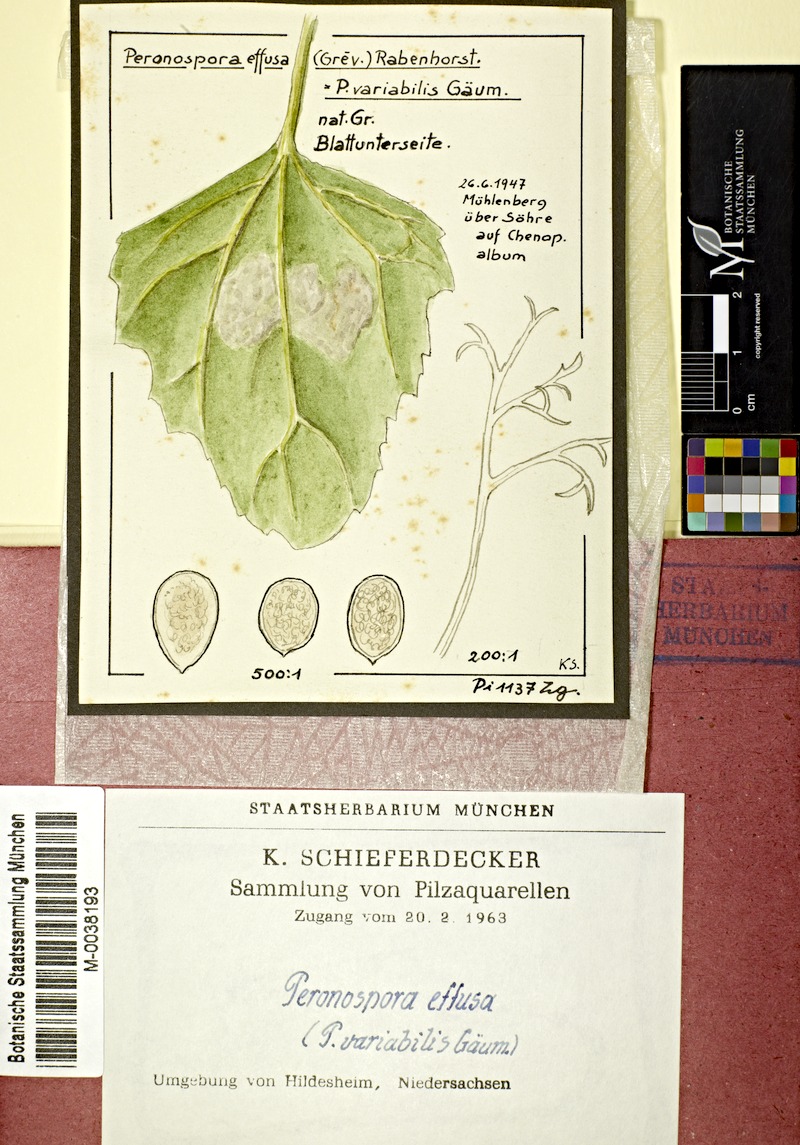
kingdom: Chromista
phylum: Oomycota
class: Peronosporea
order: Peronosporales
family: Peronosporaceae
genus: Peronospora
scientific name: Peronospora farinosa
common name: Beet downy mildew
